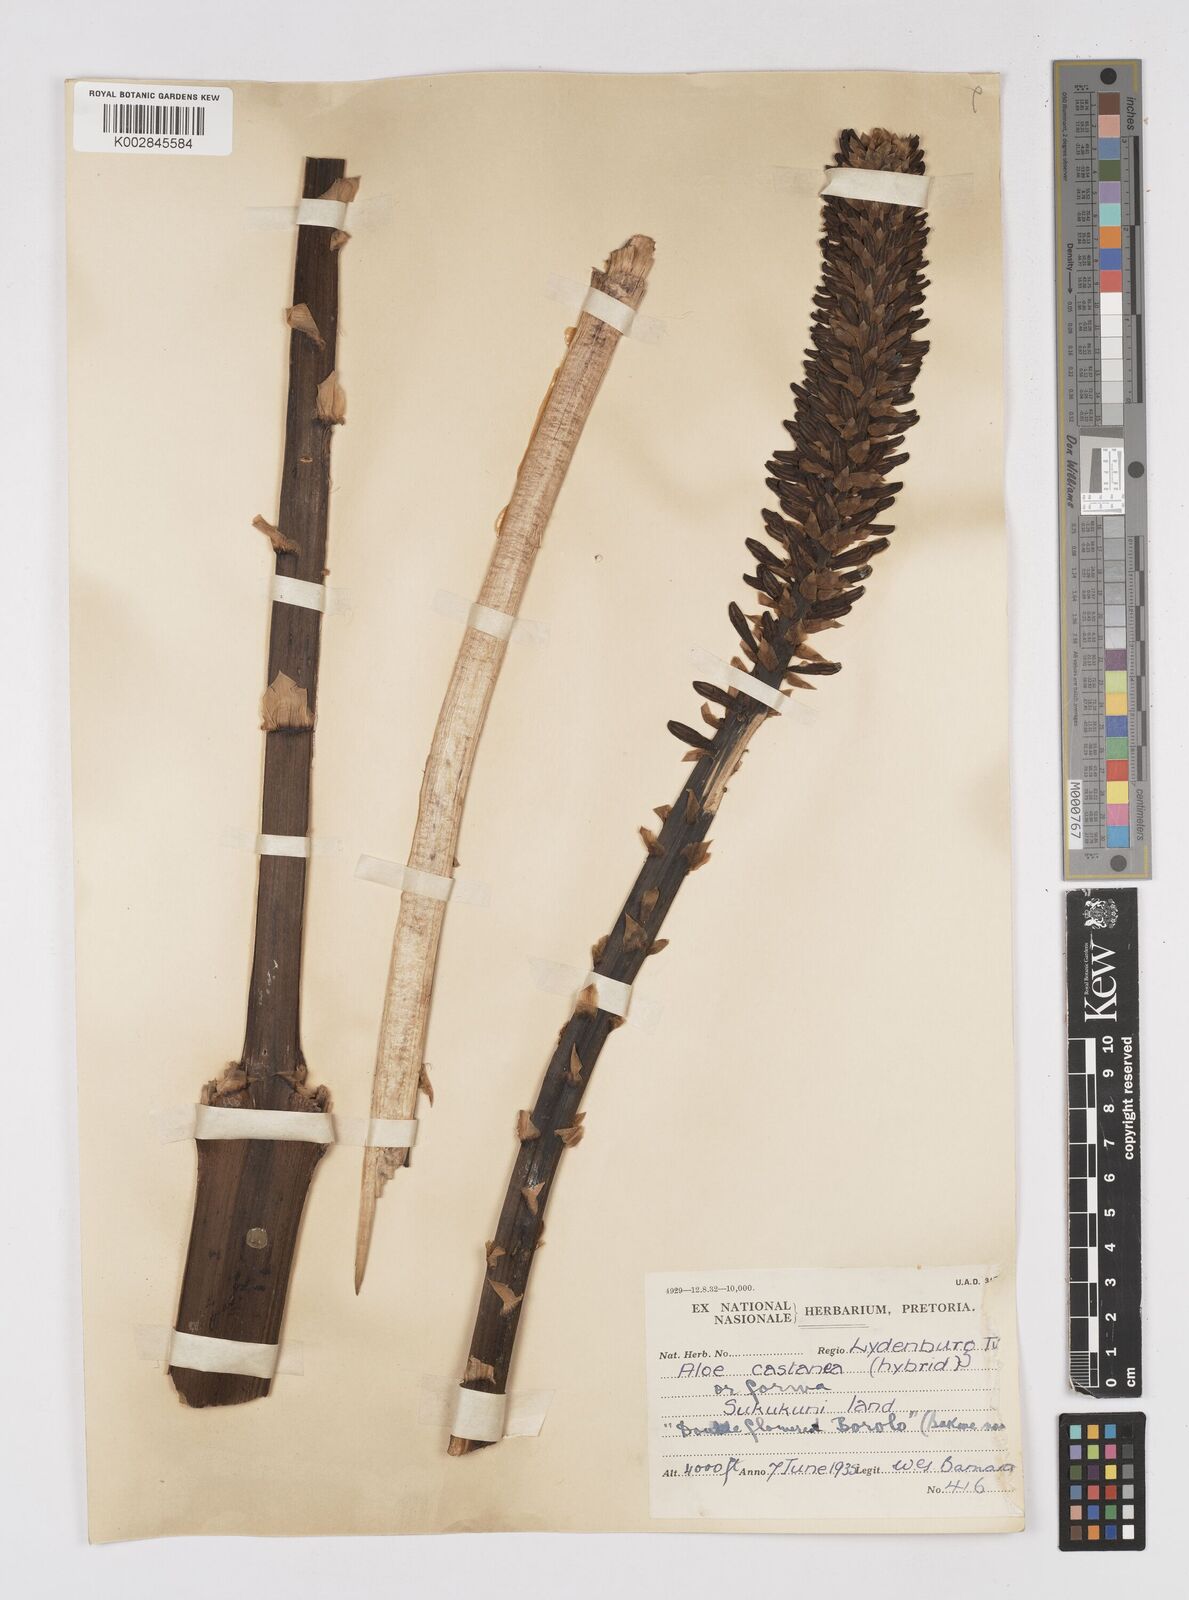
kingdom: Plantae
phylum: Tracheophyta
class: Liliopsida
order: Asparagales
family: Asphodelaceae
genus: Aloe
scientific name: Aloe castanea
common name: Cat's-tail aloe
